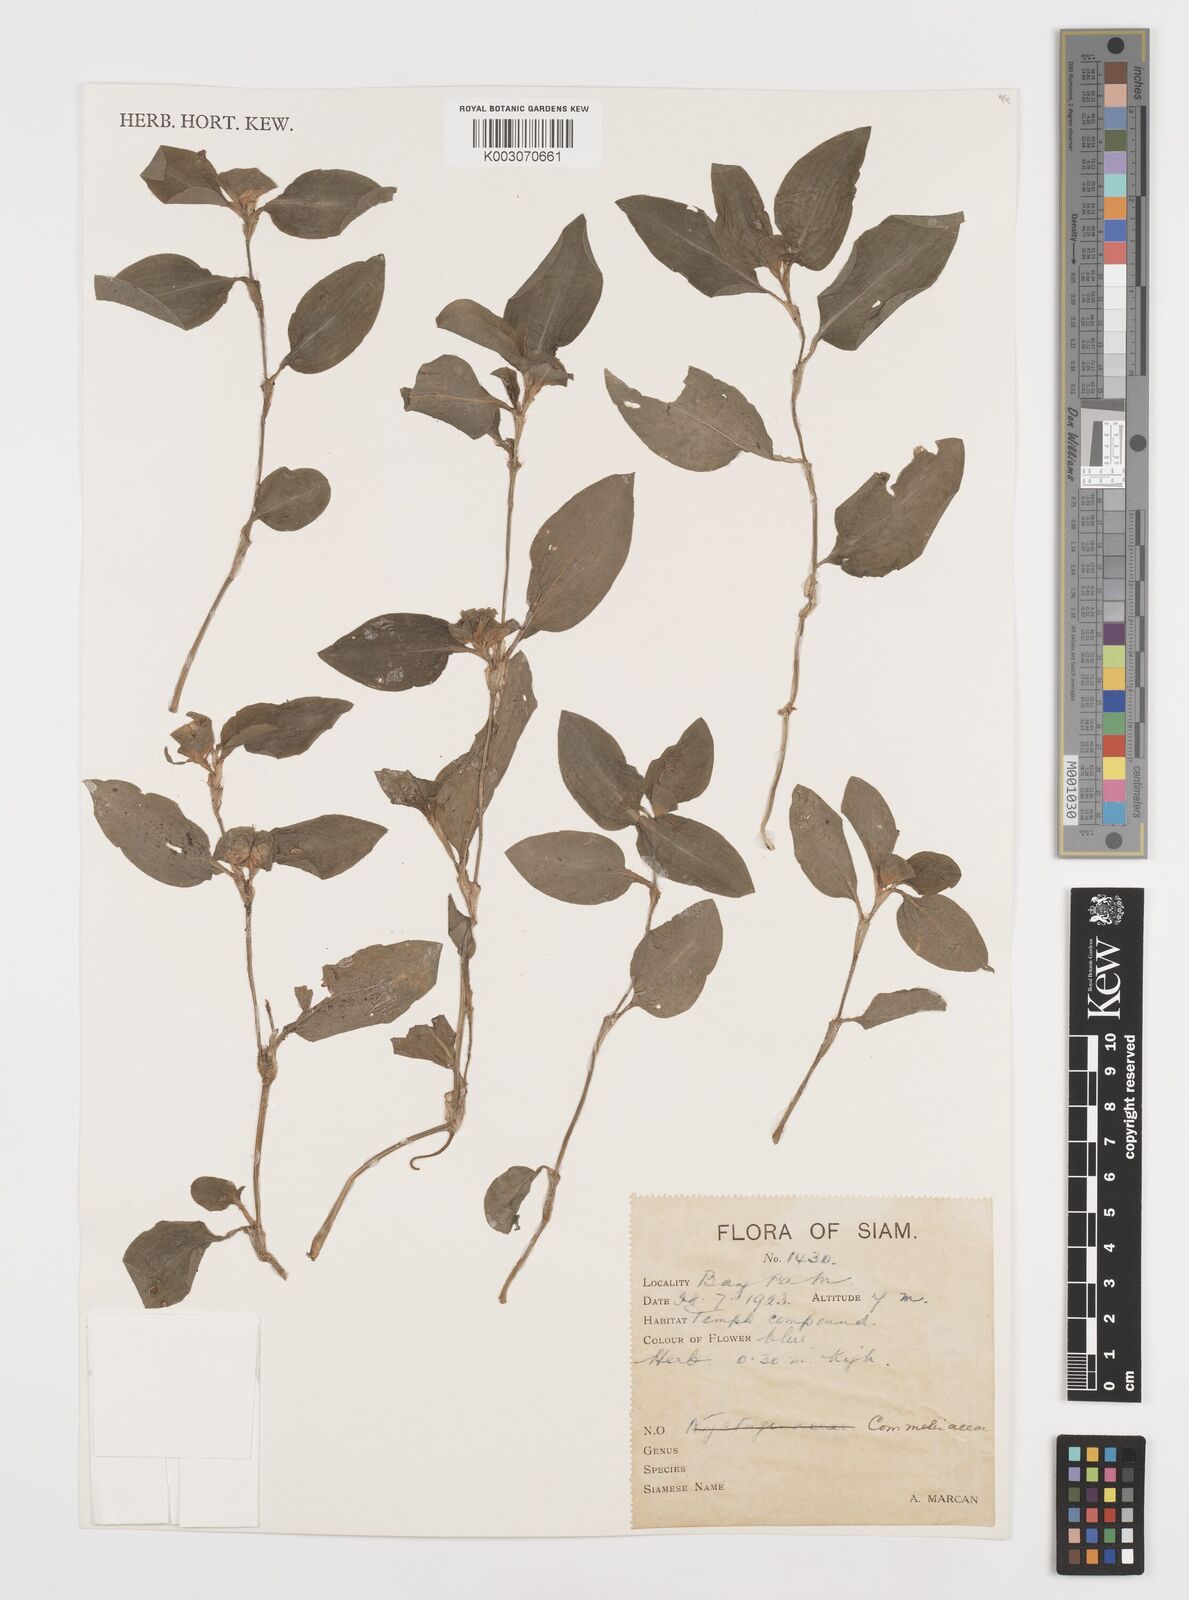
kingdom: Plantae
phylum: Tracheophyta
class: Liliopsida
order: Commelinales
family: Commelinaceae
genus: Commelina
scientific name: Commelina
